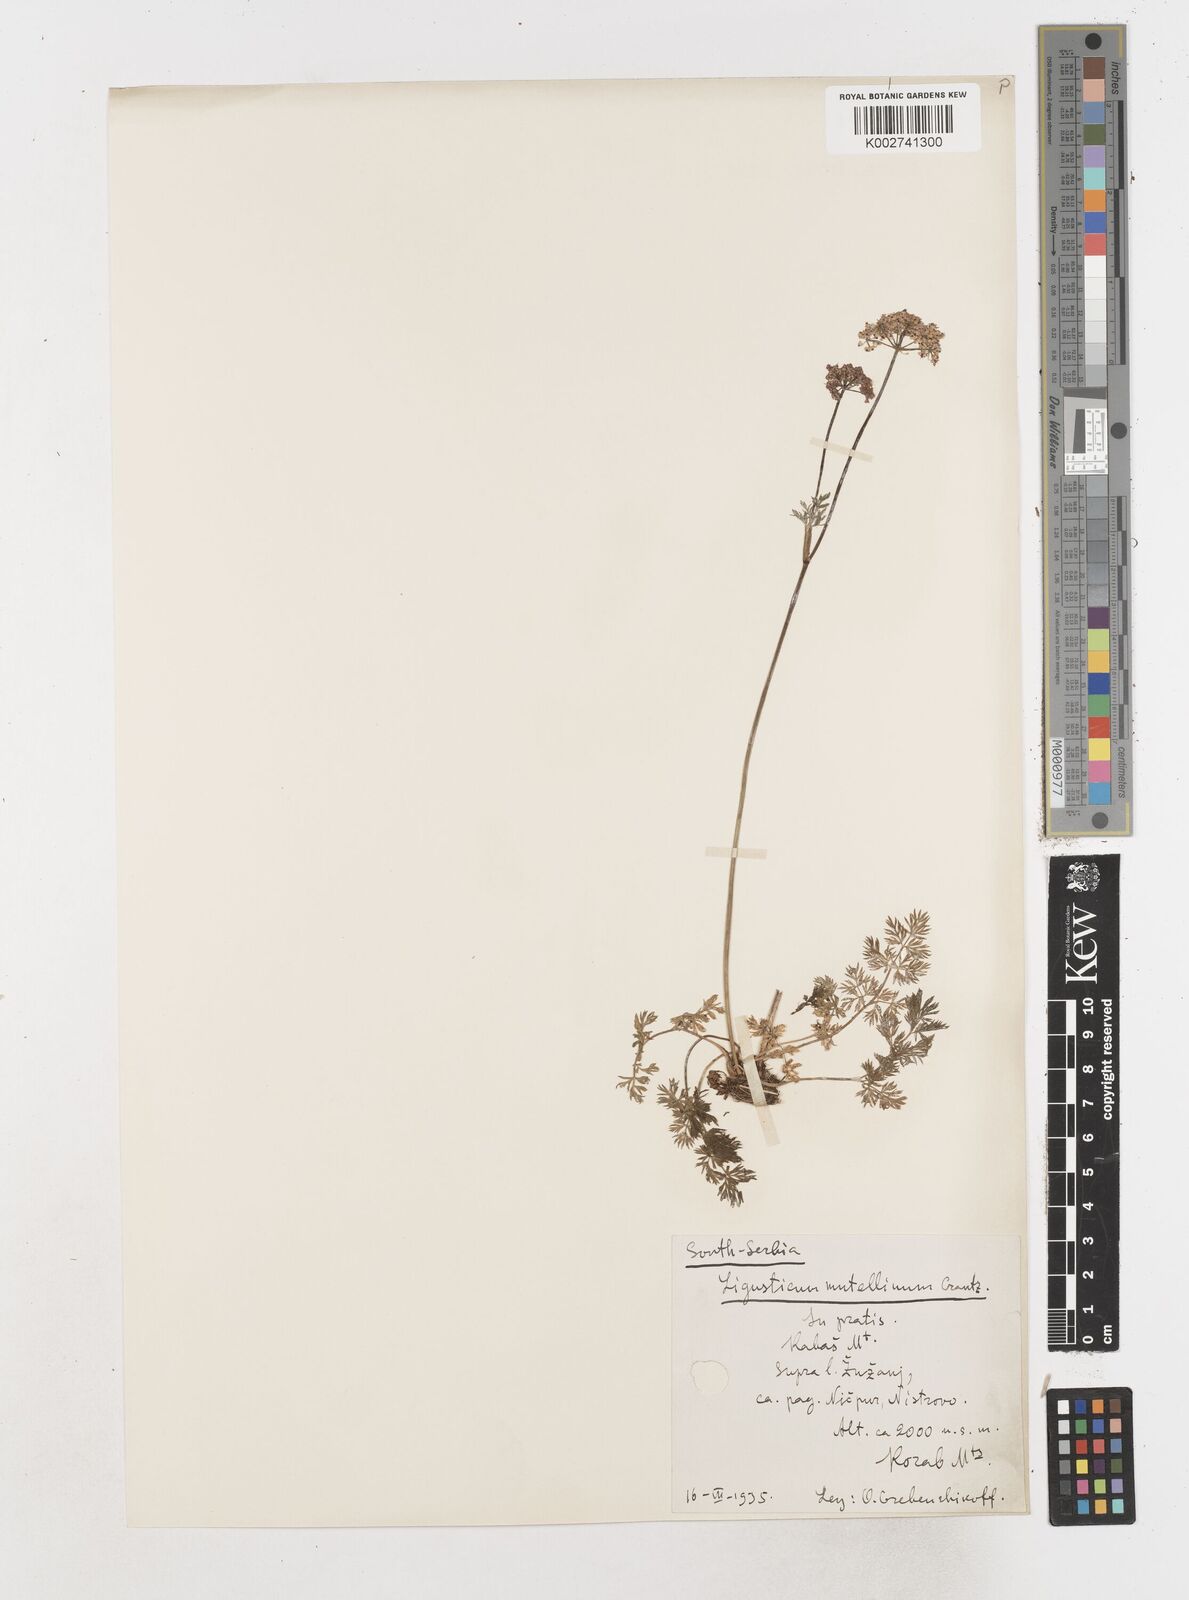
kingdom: Plantae
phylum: Tracheophyta
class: Magnoliopsida
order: Apiales
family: Apiaceae
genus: Mutellina
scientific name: Mutellina adonidifolia
